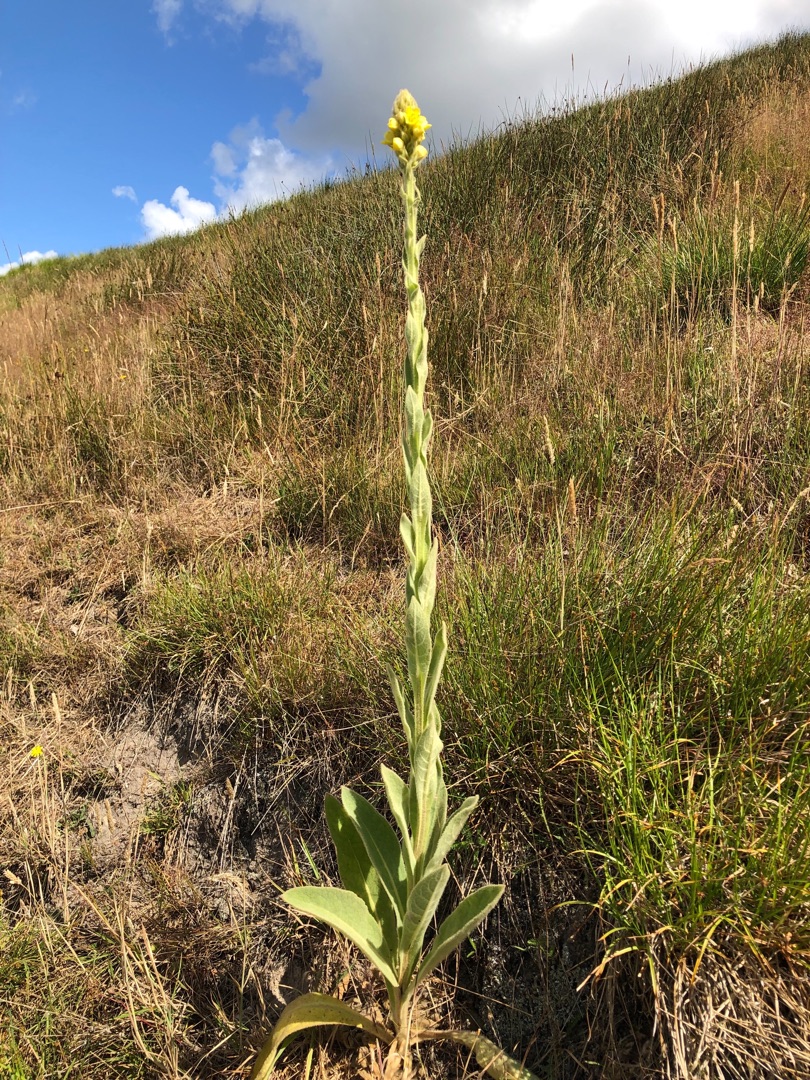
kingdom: Plantae
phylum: Tracheophyta
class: Magnoliopsida
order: Lamiales
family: Scrophulariaceae
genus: Verbascum
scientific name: Verbascum thapsus
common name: Filtbladet kongelys
